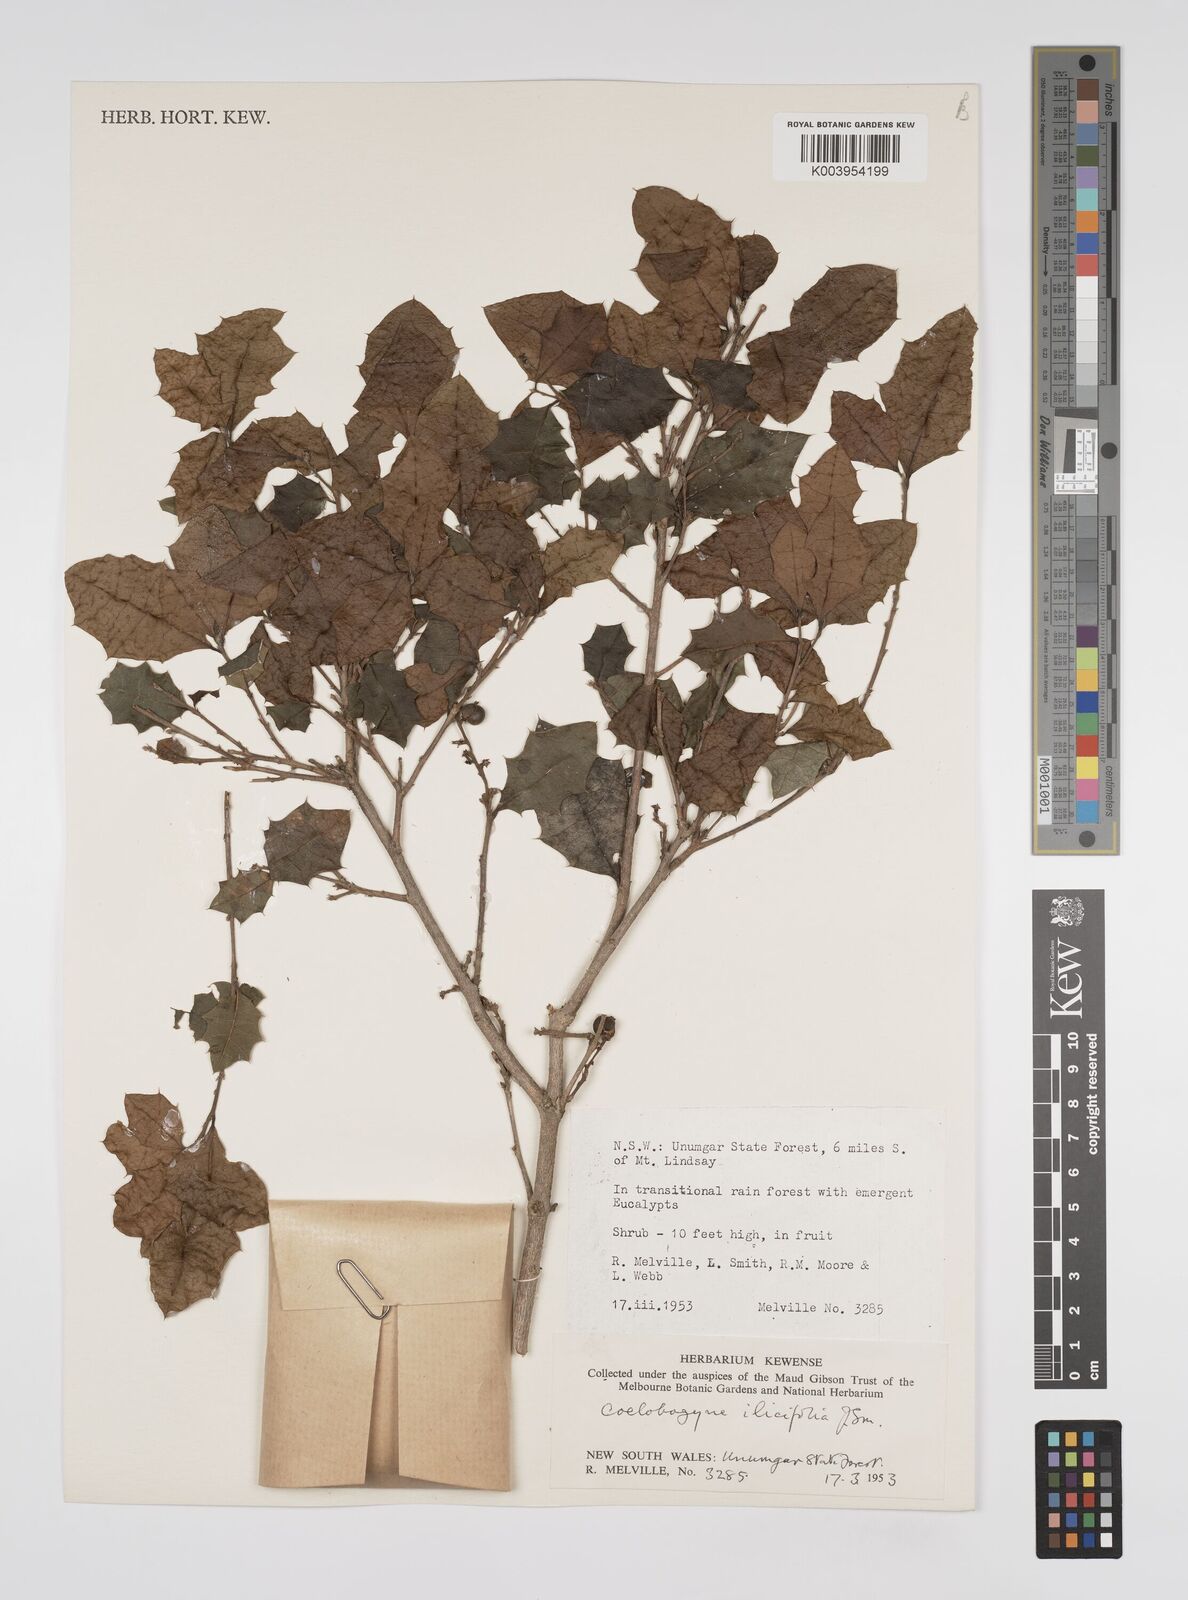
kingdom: Plantae
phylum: Tracheophyta
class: Magnoliopsida
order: Malpighiales
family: Euphorbiaceae
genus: Alchornea
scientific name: Alchornea ilicifolia
